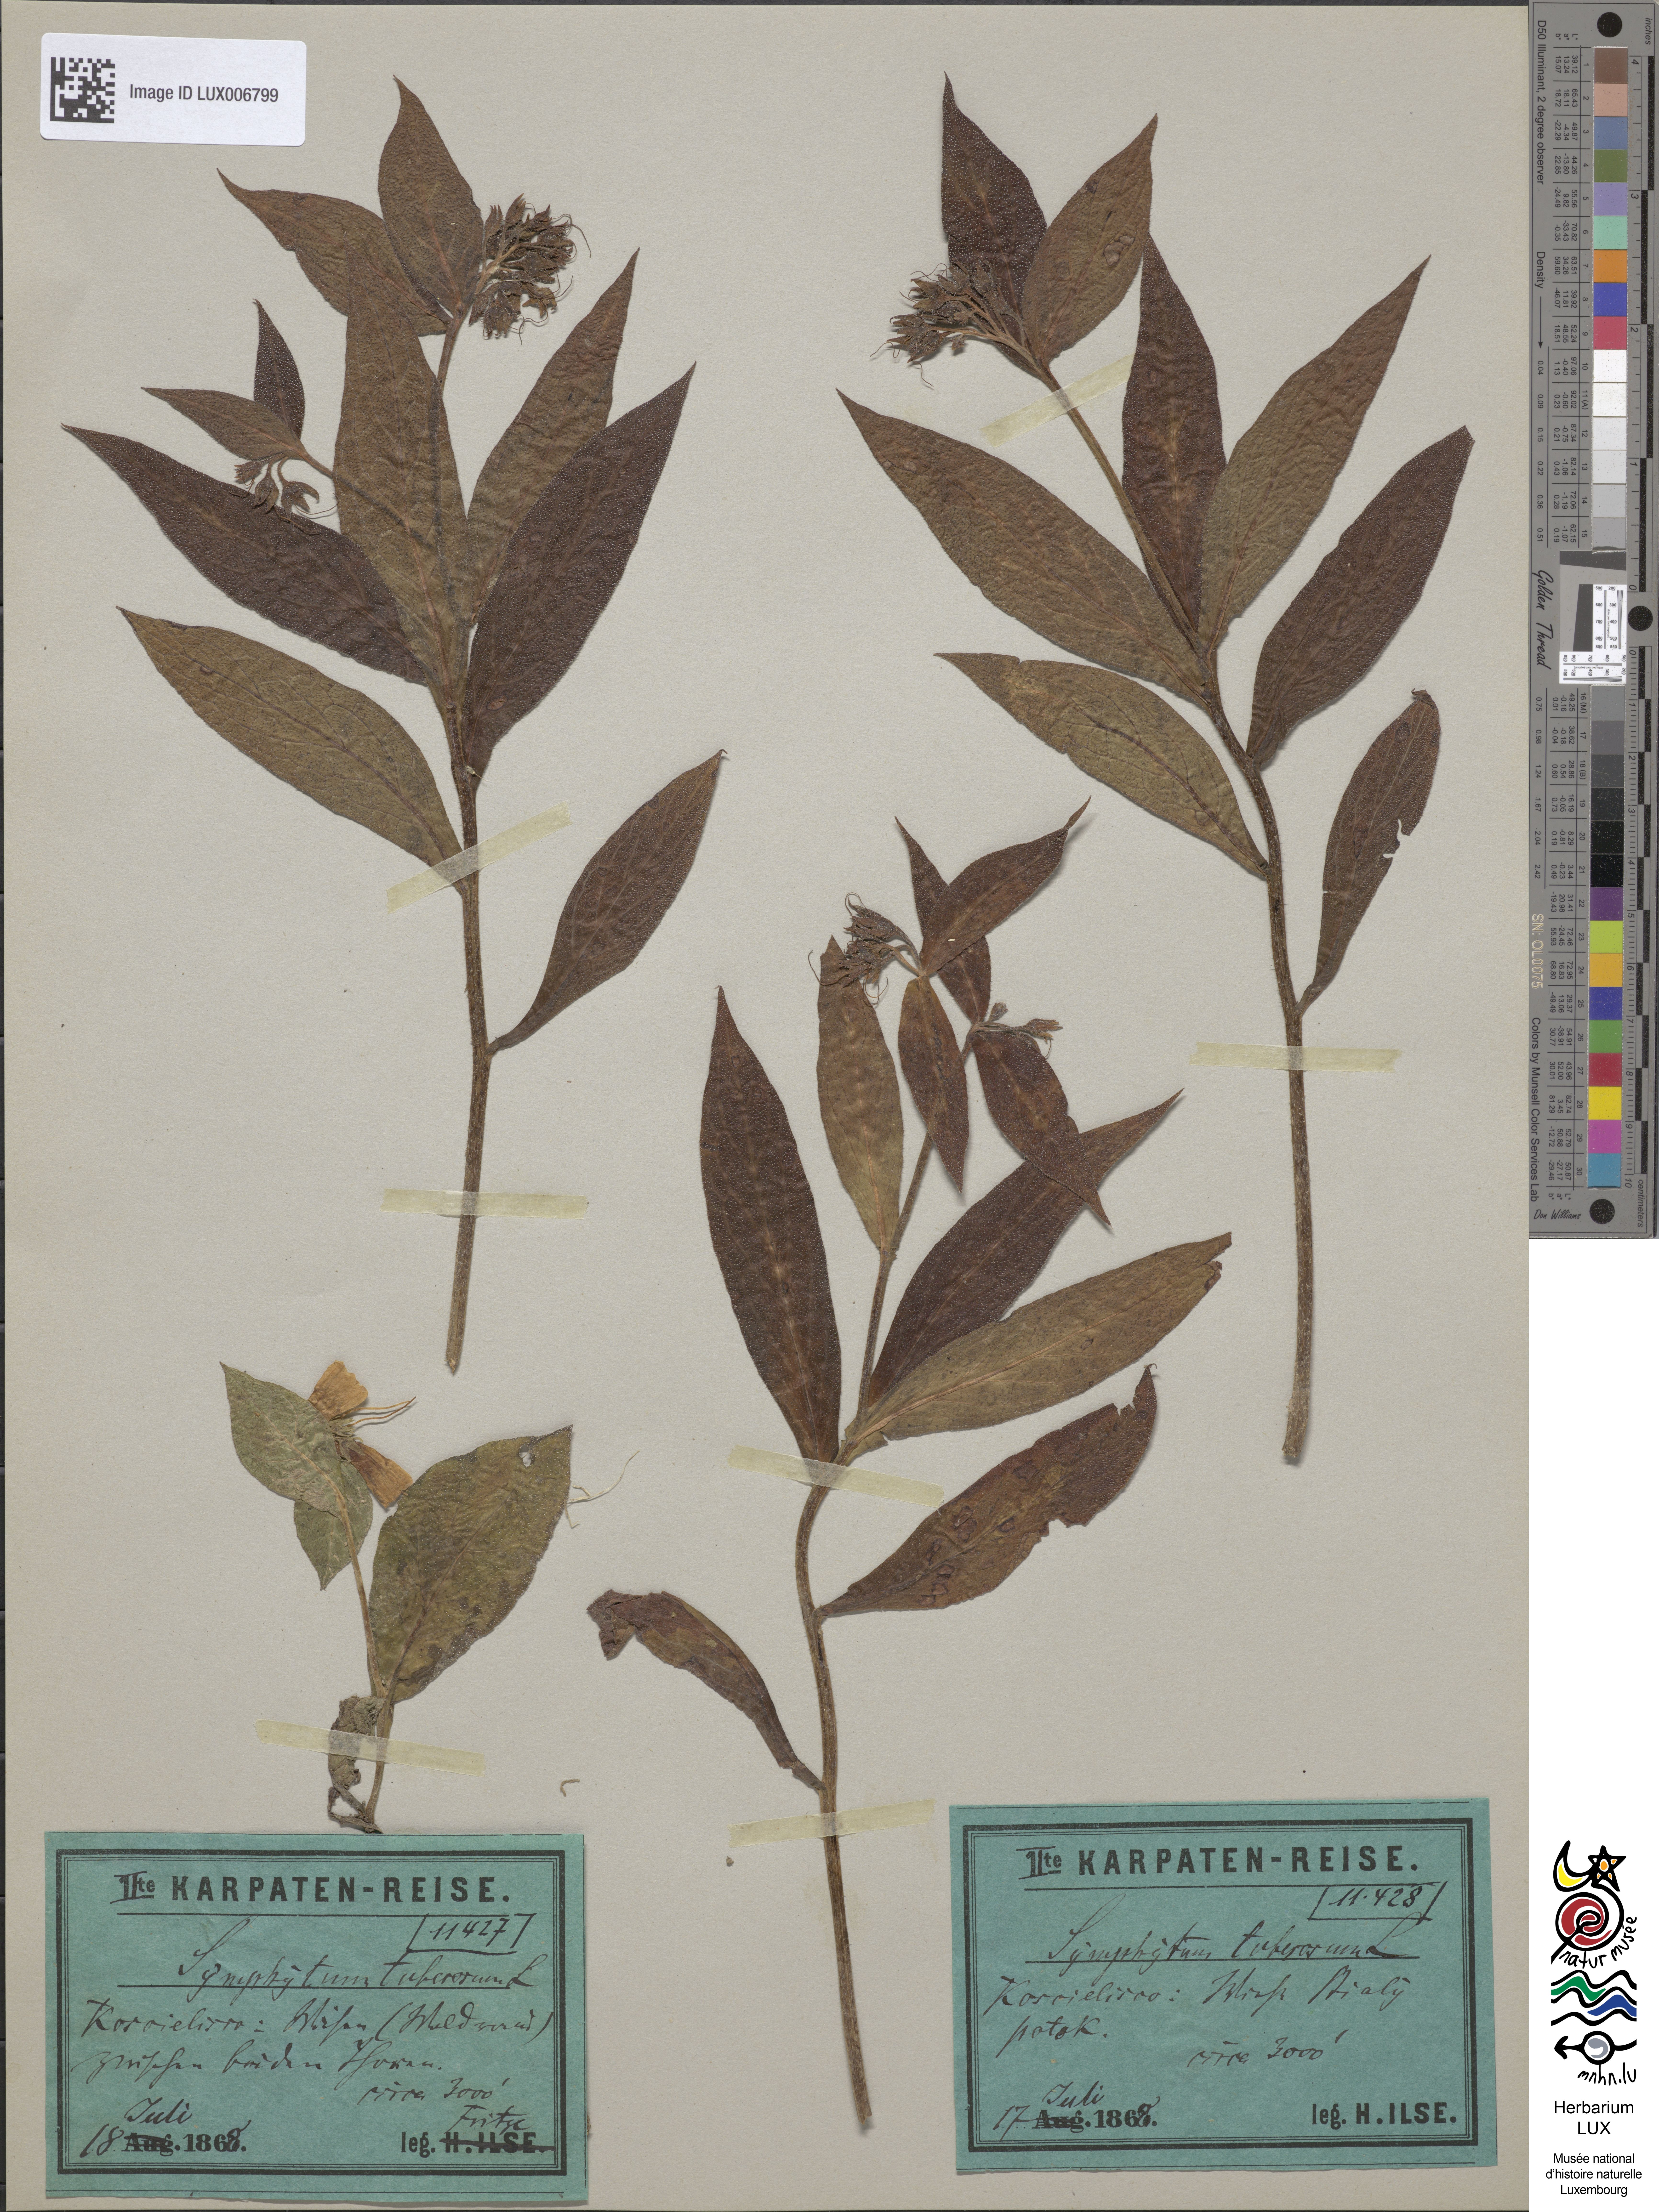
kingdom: Plantae
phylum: Tracheophyta
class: Magnoliopsida
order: Boraginales
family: Boraginaceae
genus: Symphytum
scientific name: Symphytum tuberosum
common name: Tuberous comfrey
